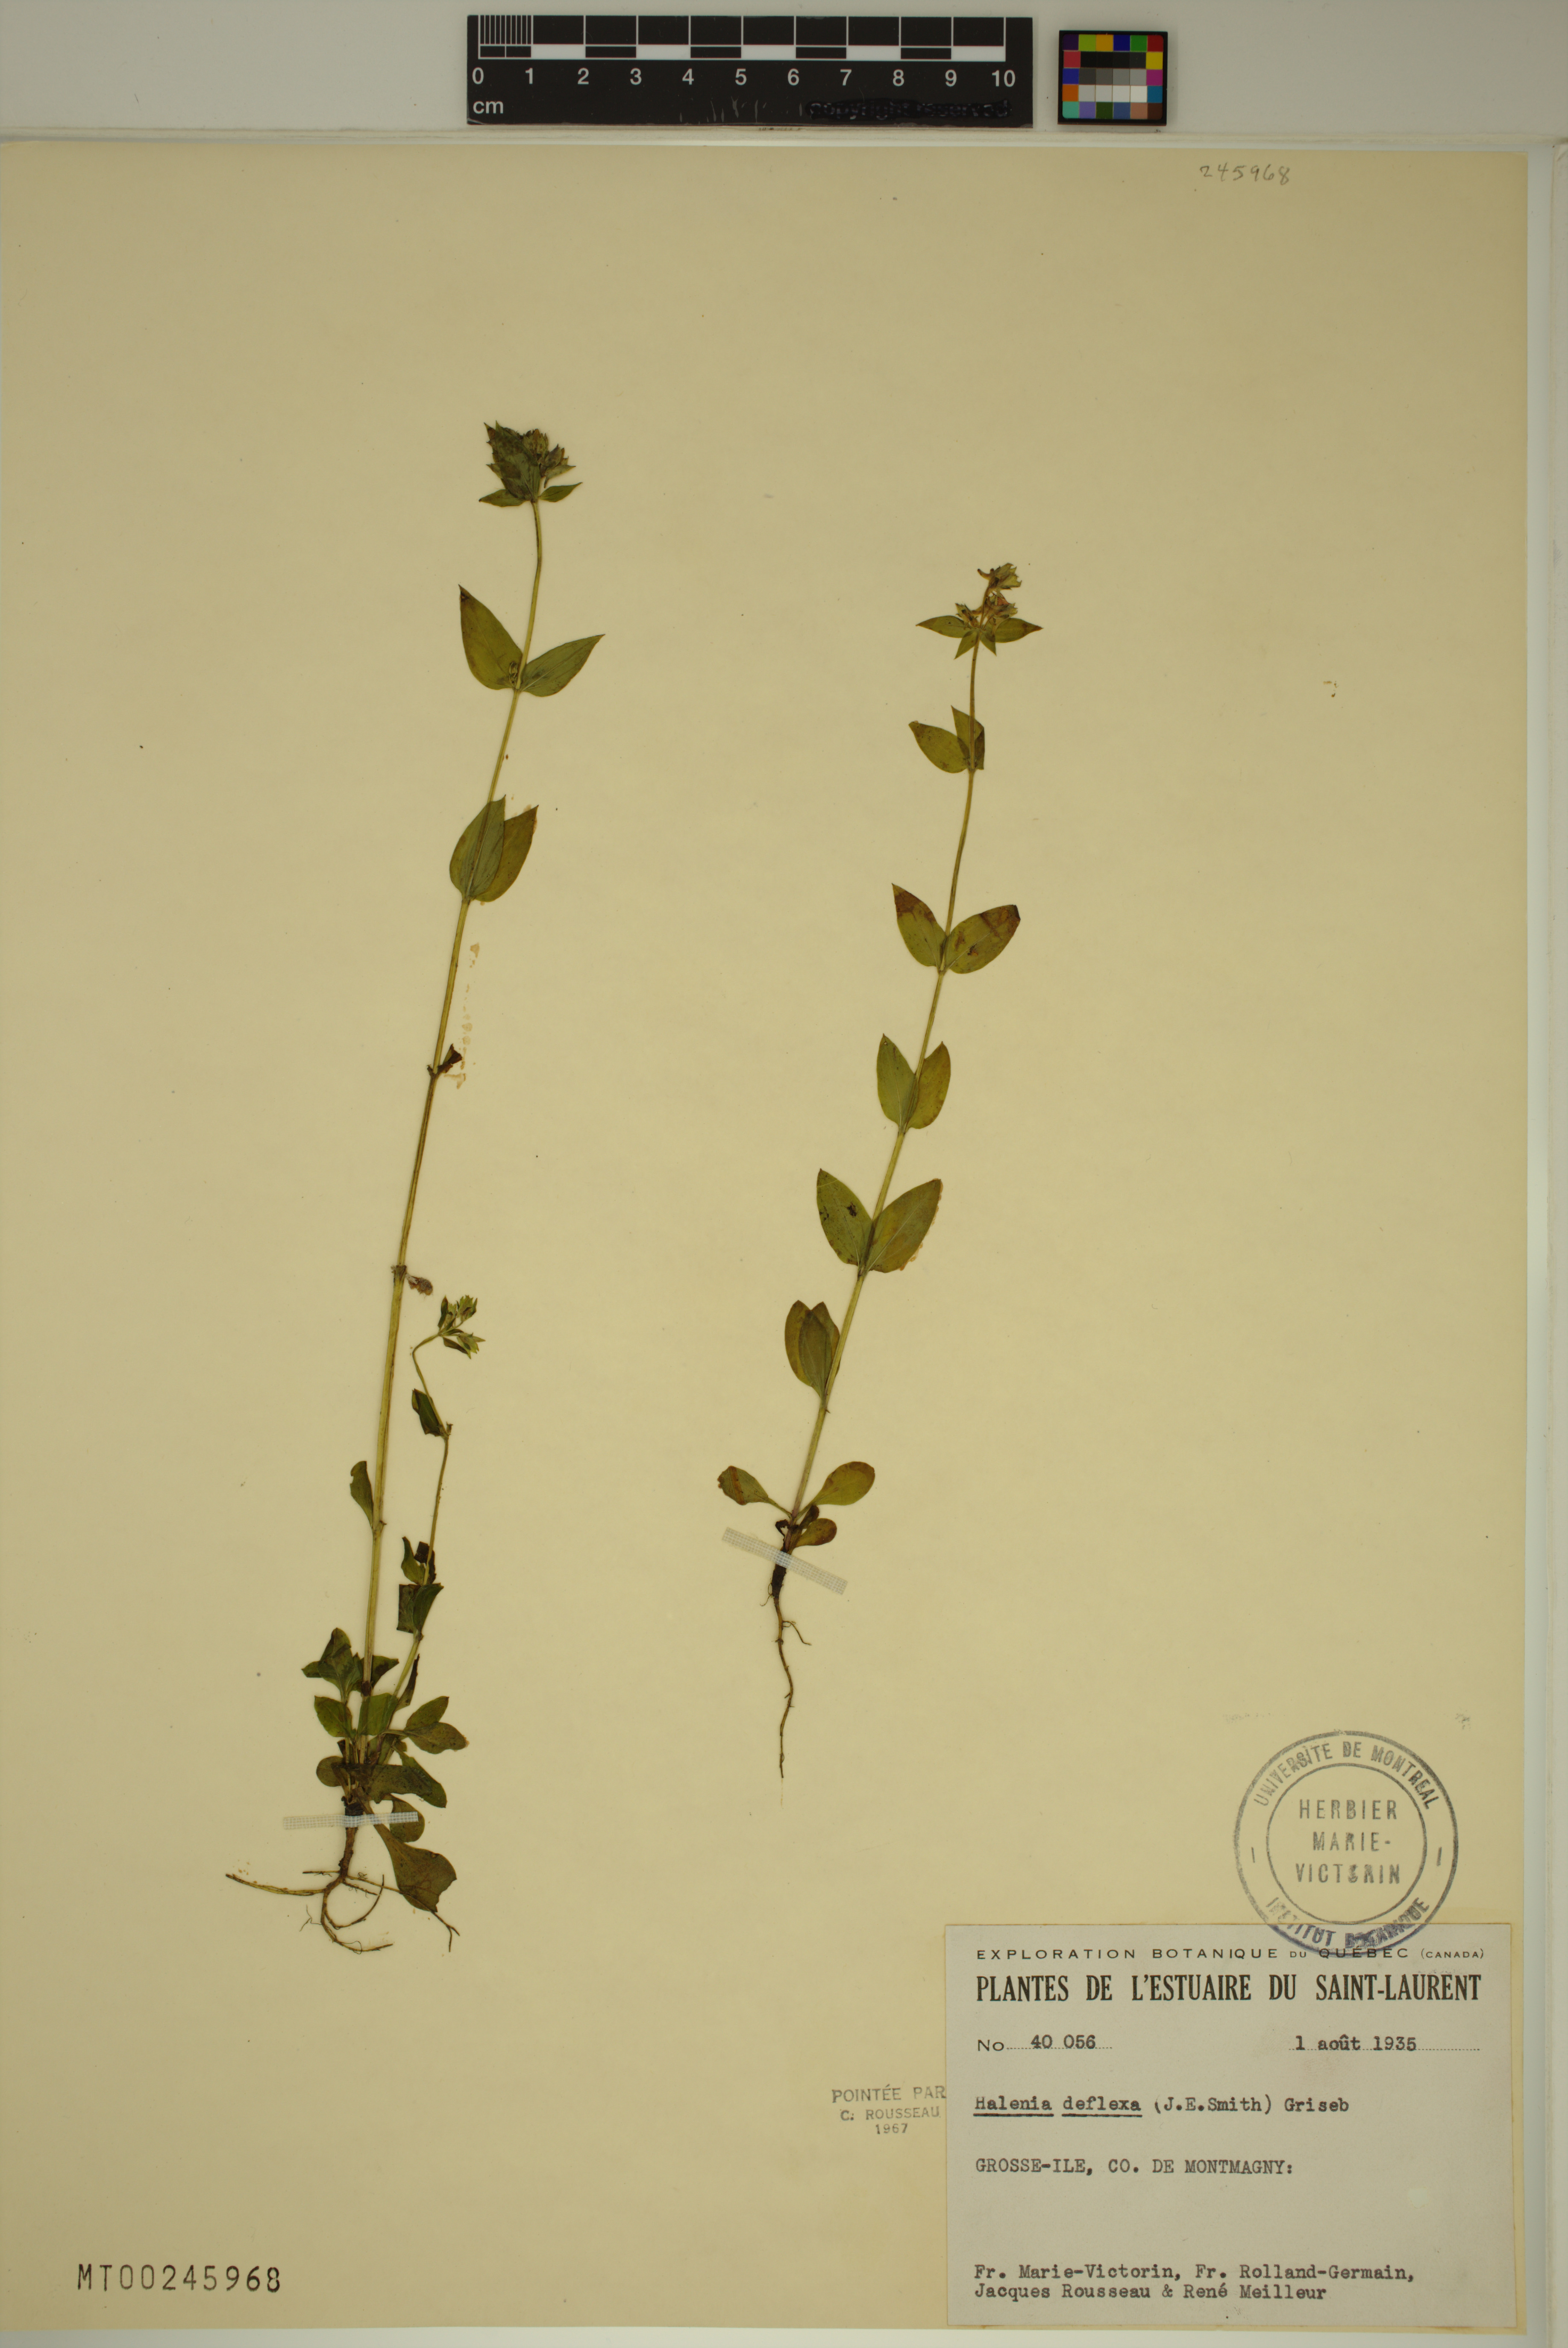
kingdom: Plantae
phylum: Tracheophyta
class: Magnoliopsida
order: Gentianales
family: Gentianaceae
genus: Halenia
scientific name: Halenia deflexa
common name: American spurred gentian
